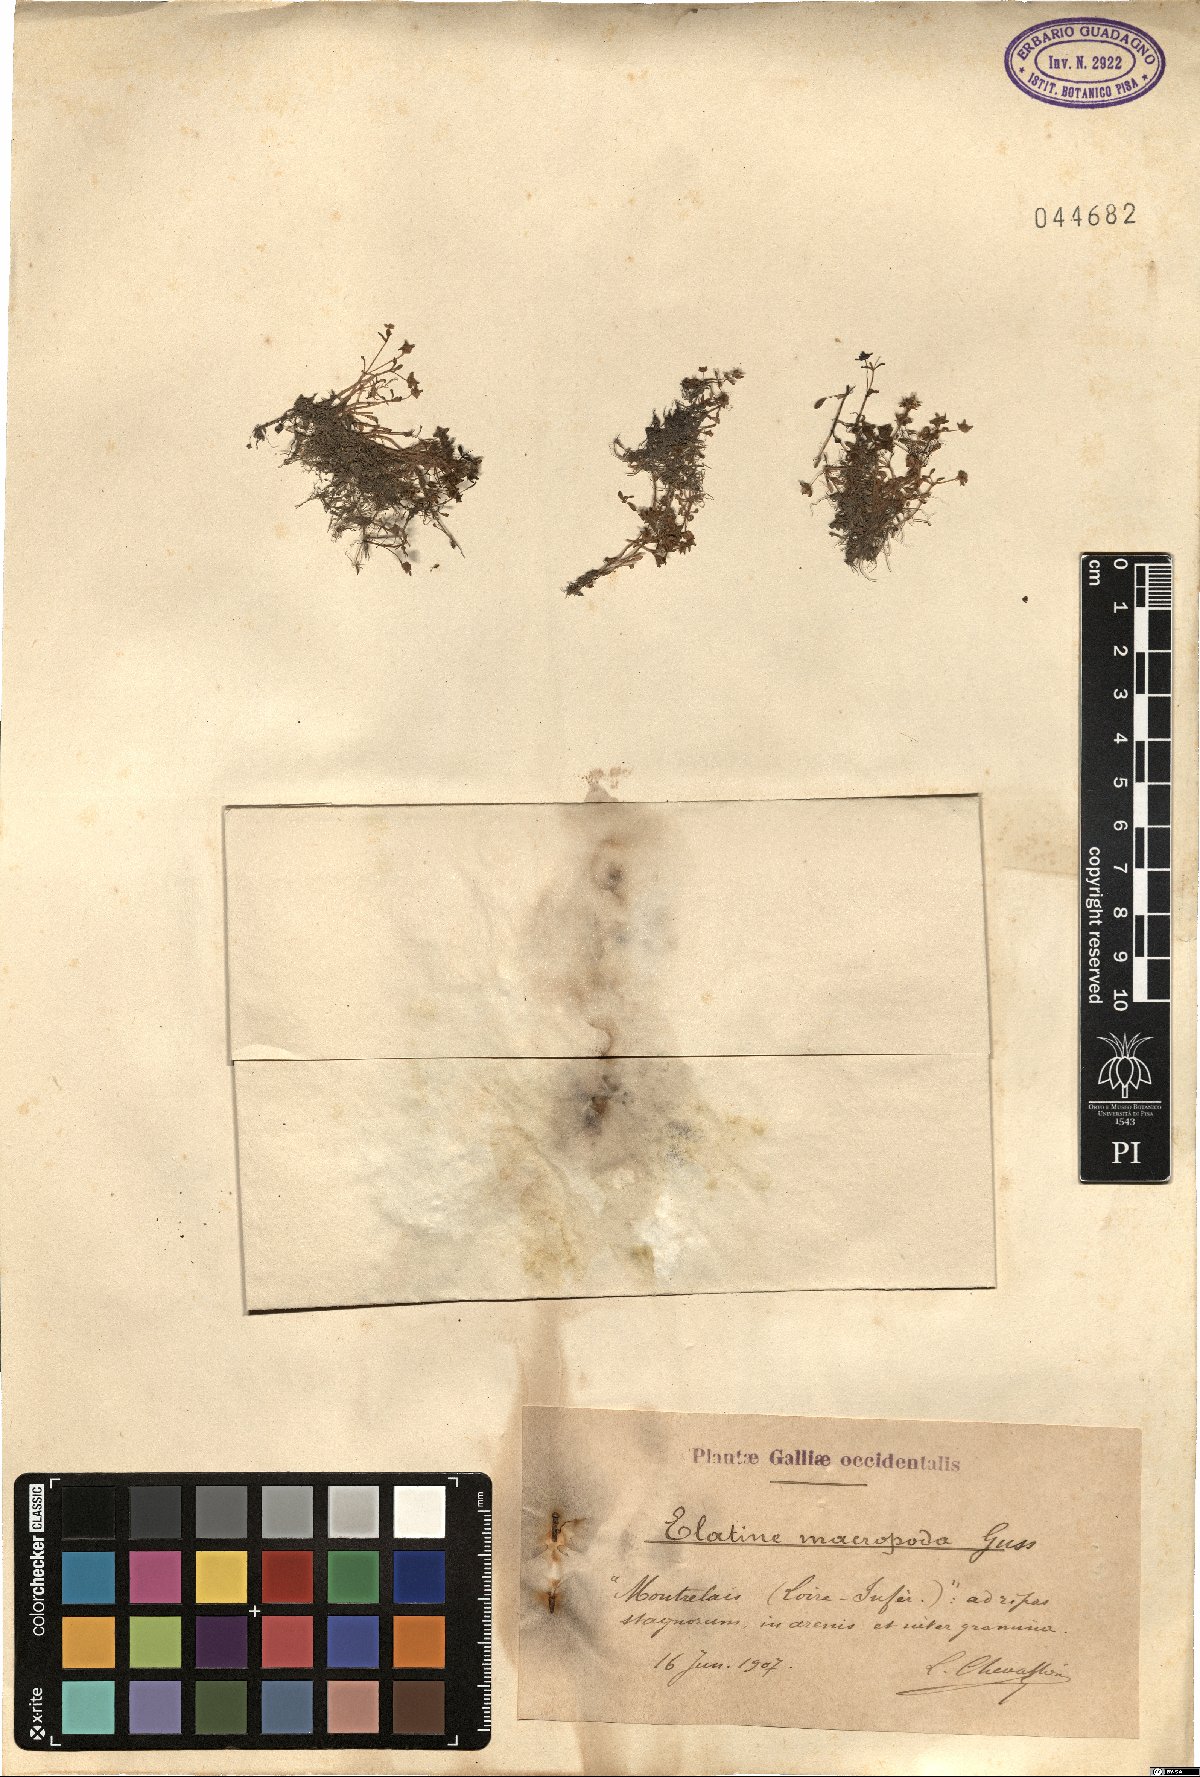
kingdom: Plantae
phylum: Tracheophyta
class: Magnoliopsida
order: Malpighiales
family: Elatinaceae
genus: Elatine
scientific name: Elatine macropoda
